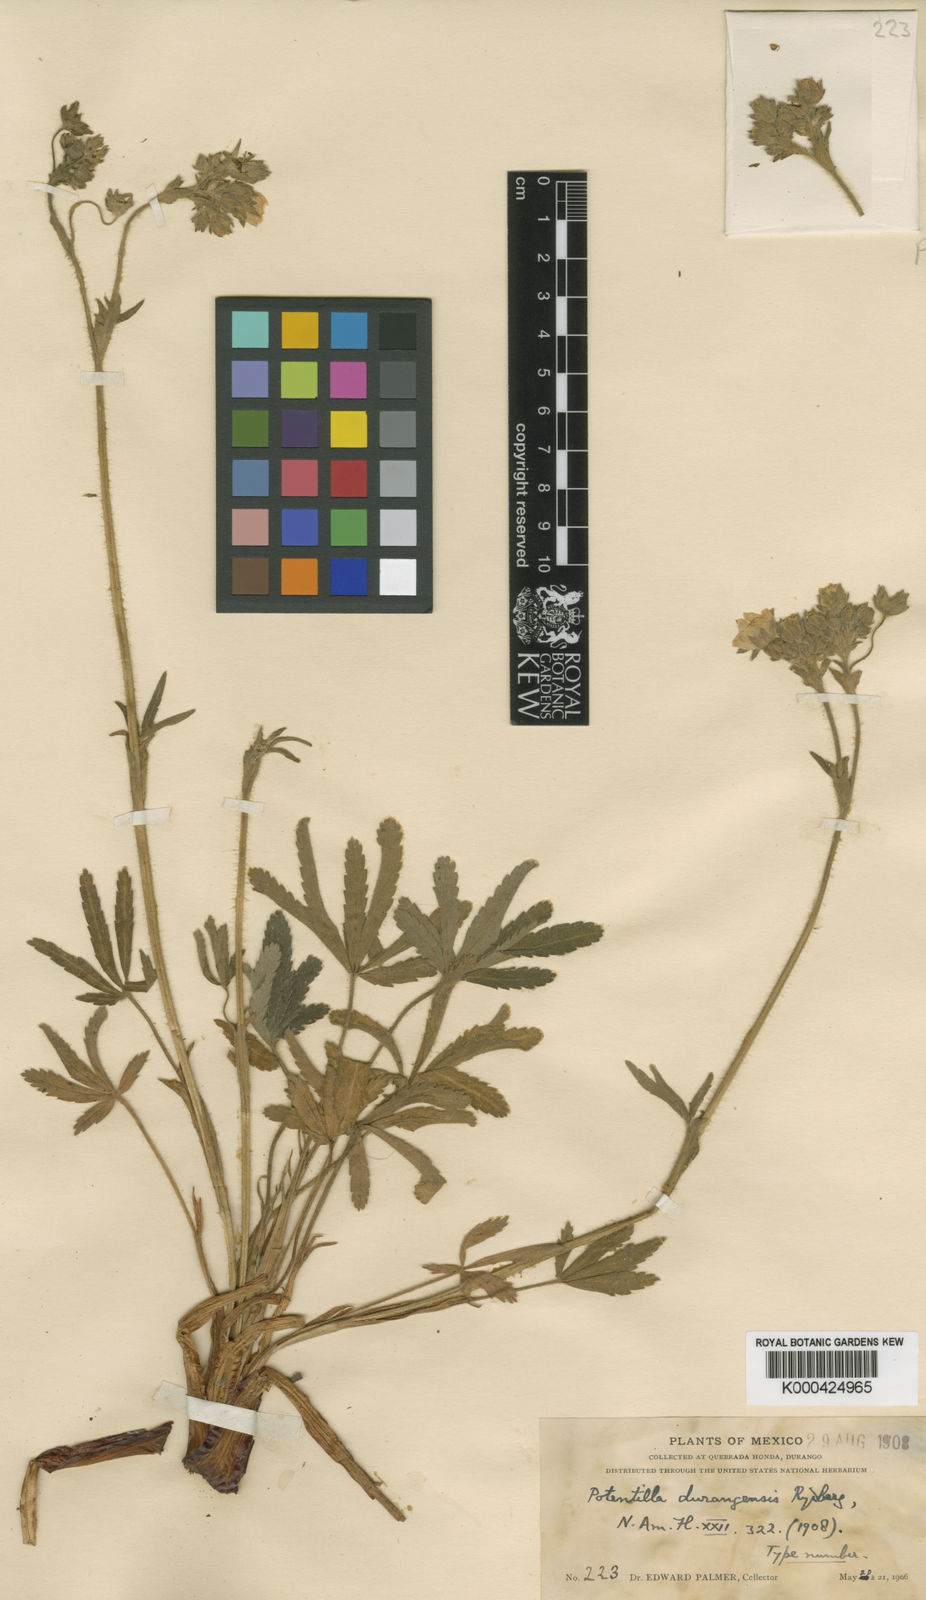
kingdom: Plantae
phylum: Tracheophyta
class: Magnoliopsida
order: Rosales
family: Rosaceae
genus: Potentilla
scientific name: Potentilla durangensis
